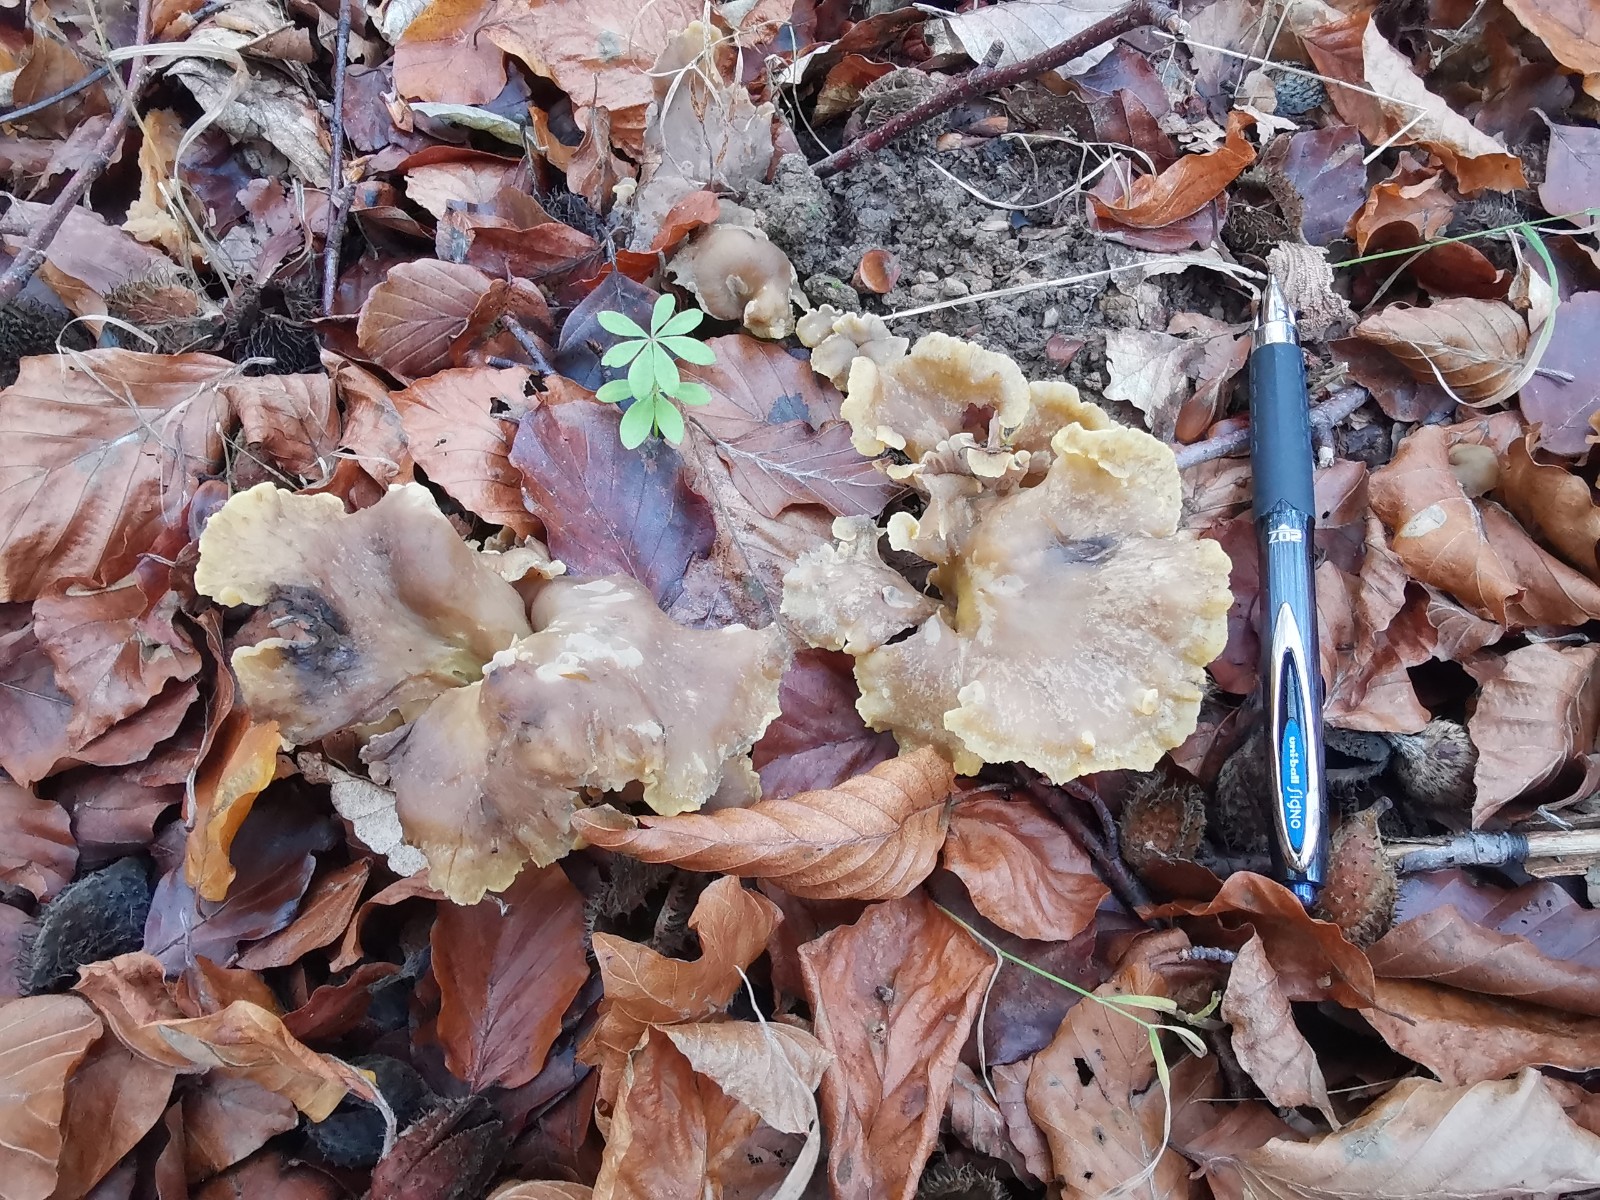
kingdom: Fungi
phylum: Basidiomycota
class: Agaricomycetes
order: Cantharellales
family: Hydnaceae
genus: Cantharellus
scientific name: Cantharellus melanoxeros
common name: sværtende kantarel
